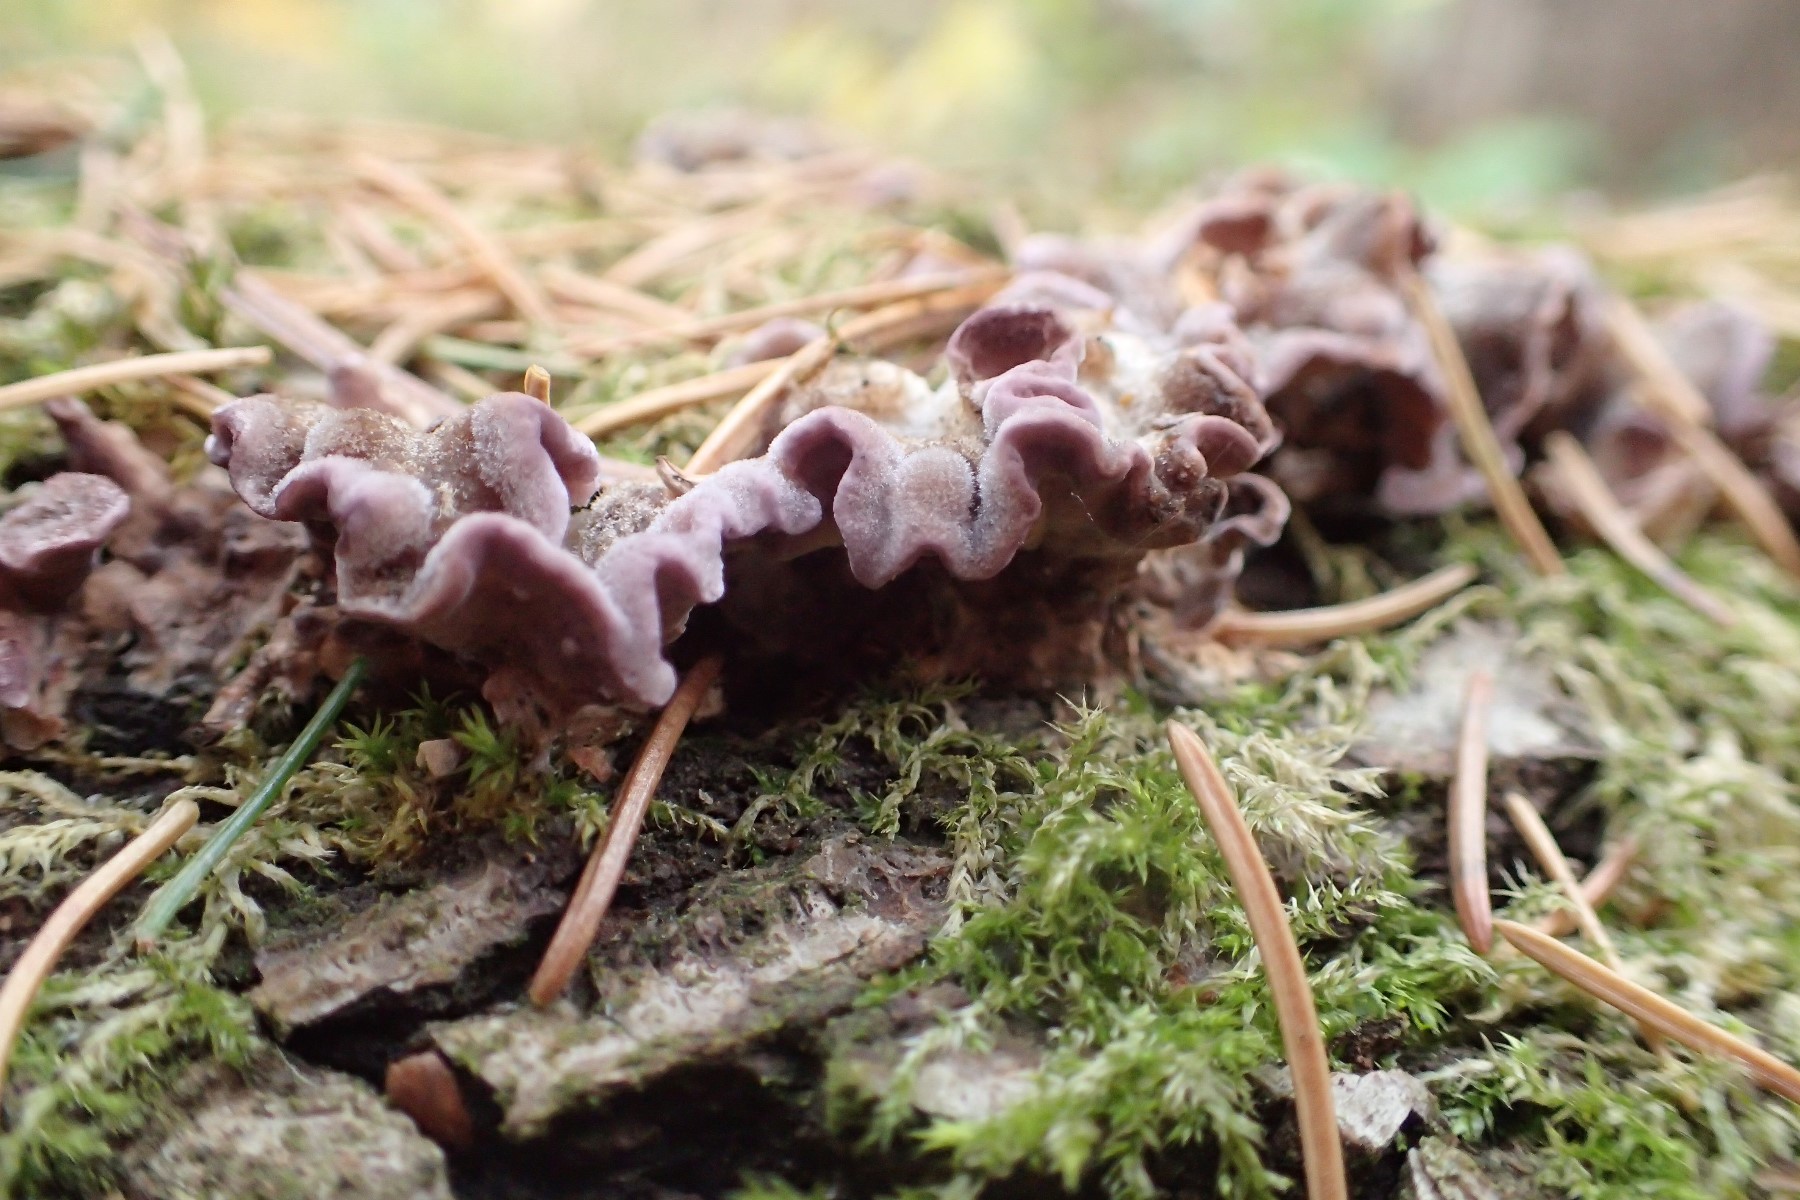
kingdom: Fungi
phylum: Basidiomycota
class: Agaricomycetes
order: Agaricales
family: Cyphellaceae
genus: Chondrostereum
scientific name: Chondrostereum purpureum
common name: purpurlædersvamp
